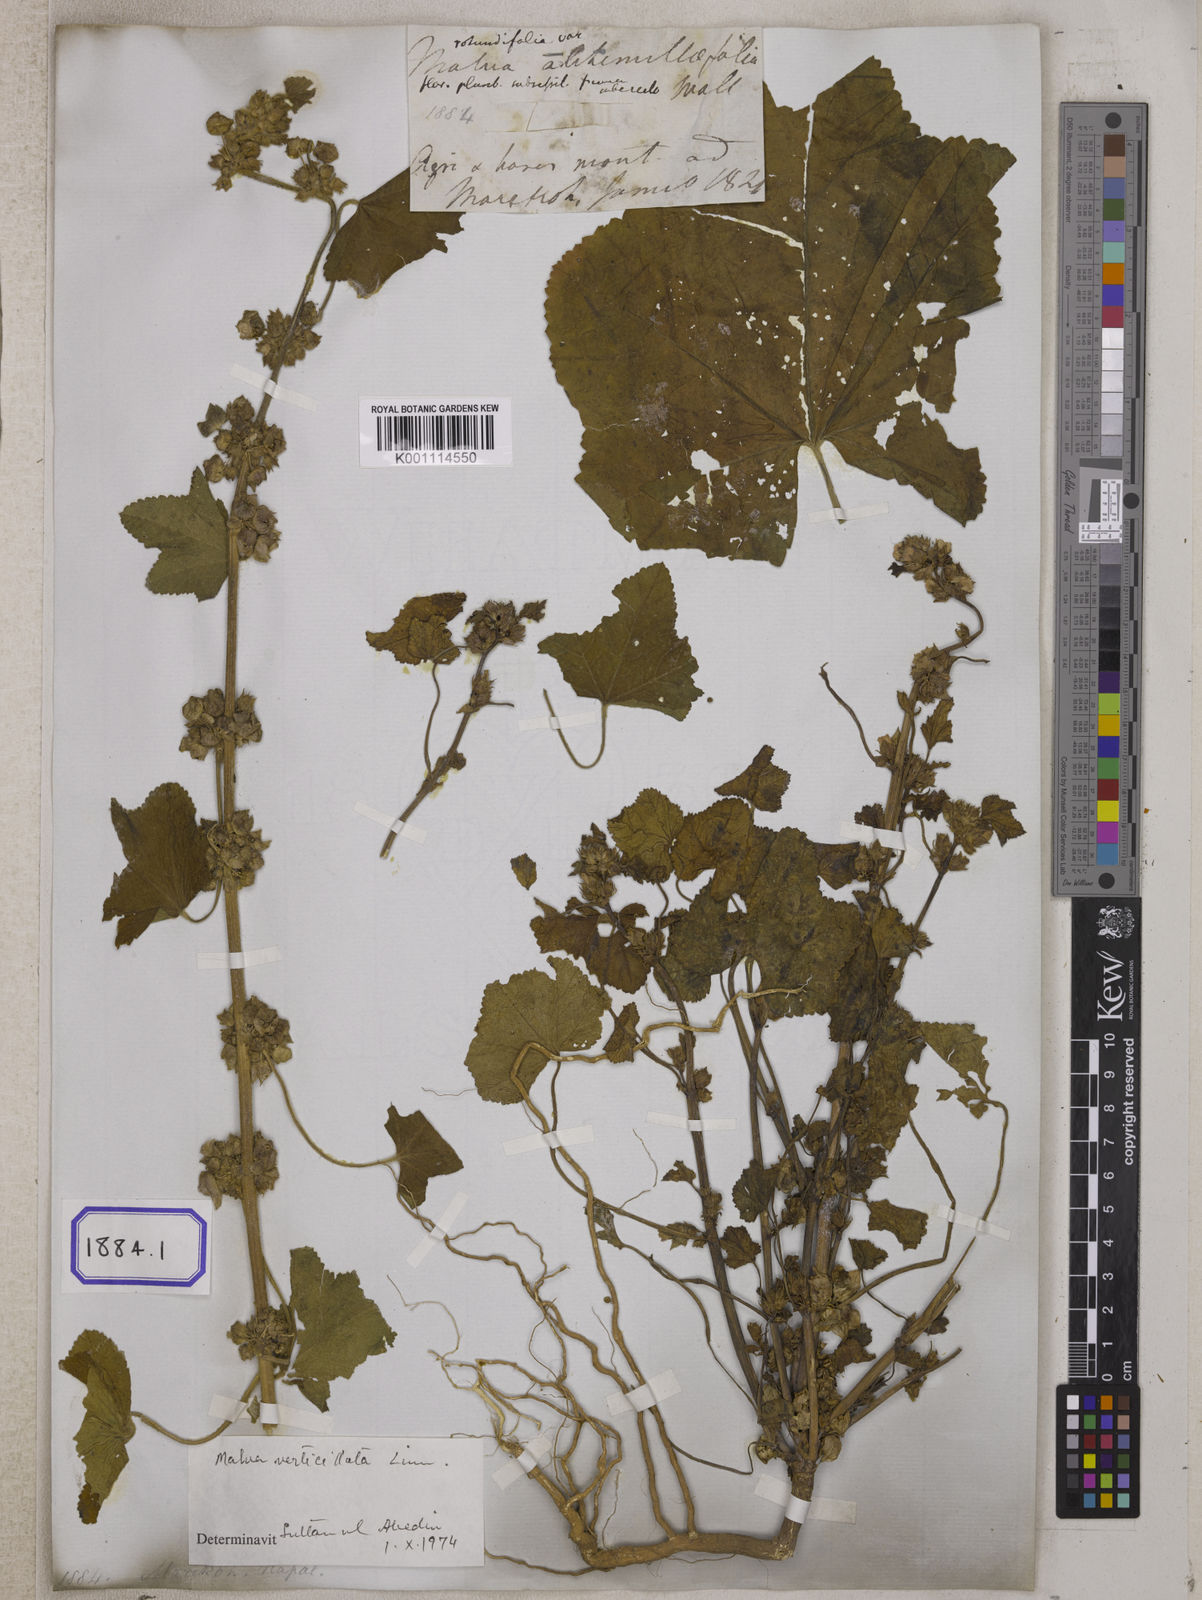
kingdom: Plantae
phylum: Tracheophyta
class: Magnoliopsida
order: Malvales
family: Malvaceae
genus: Malva
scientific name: Malva pusilla
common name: Small mallow
